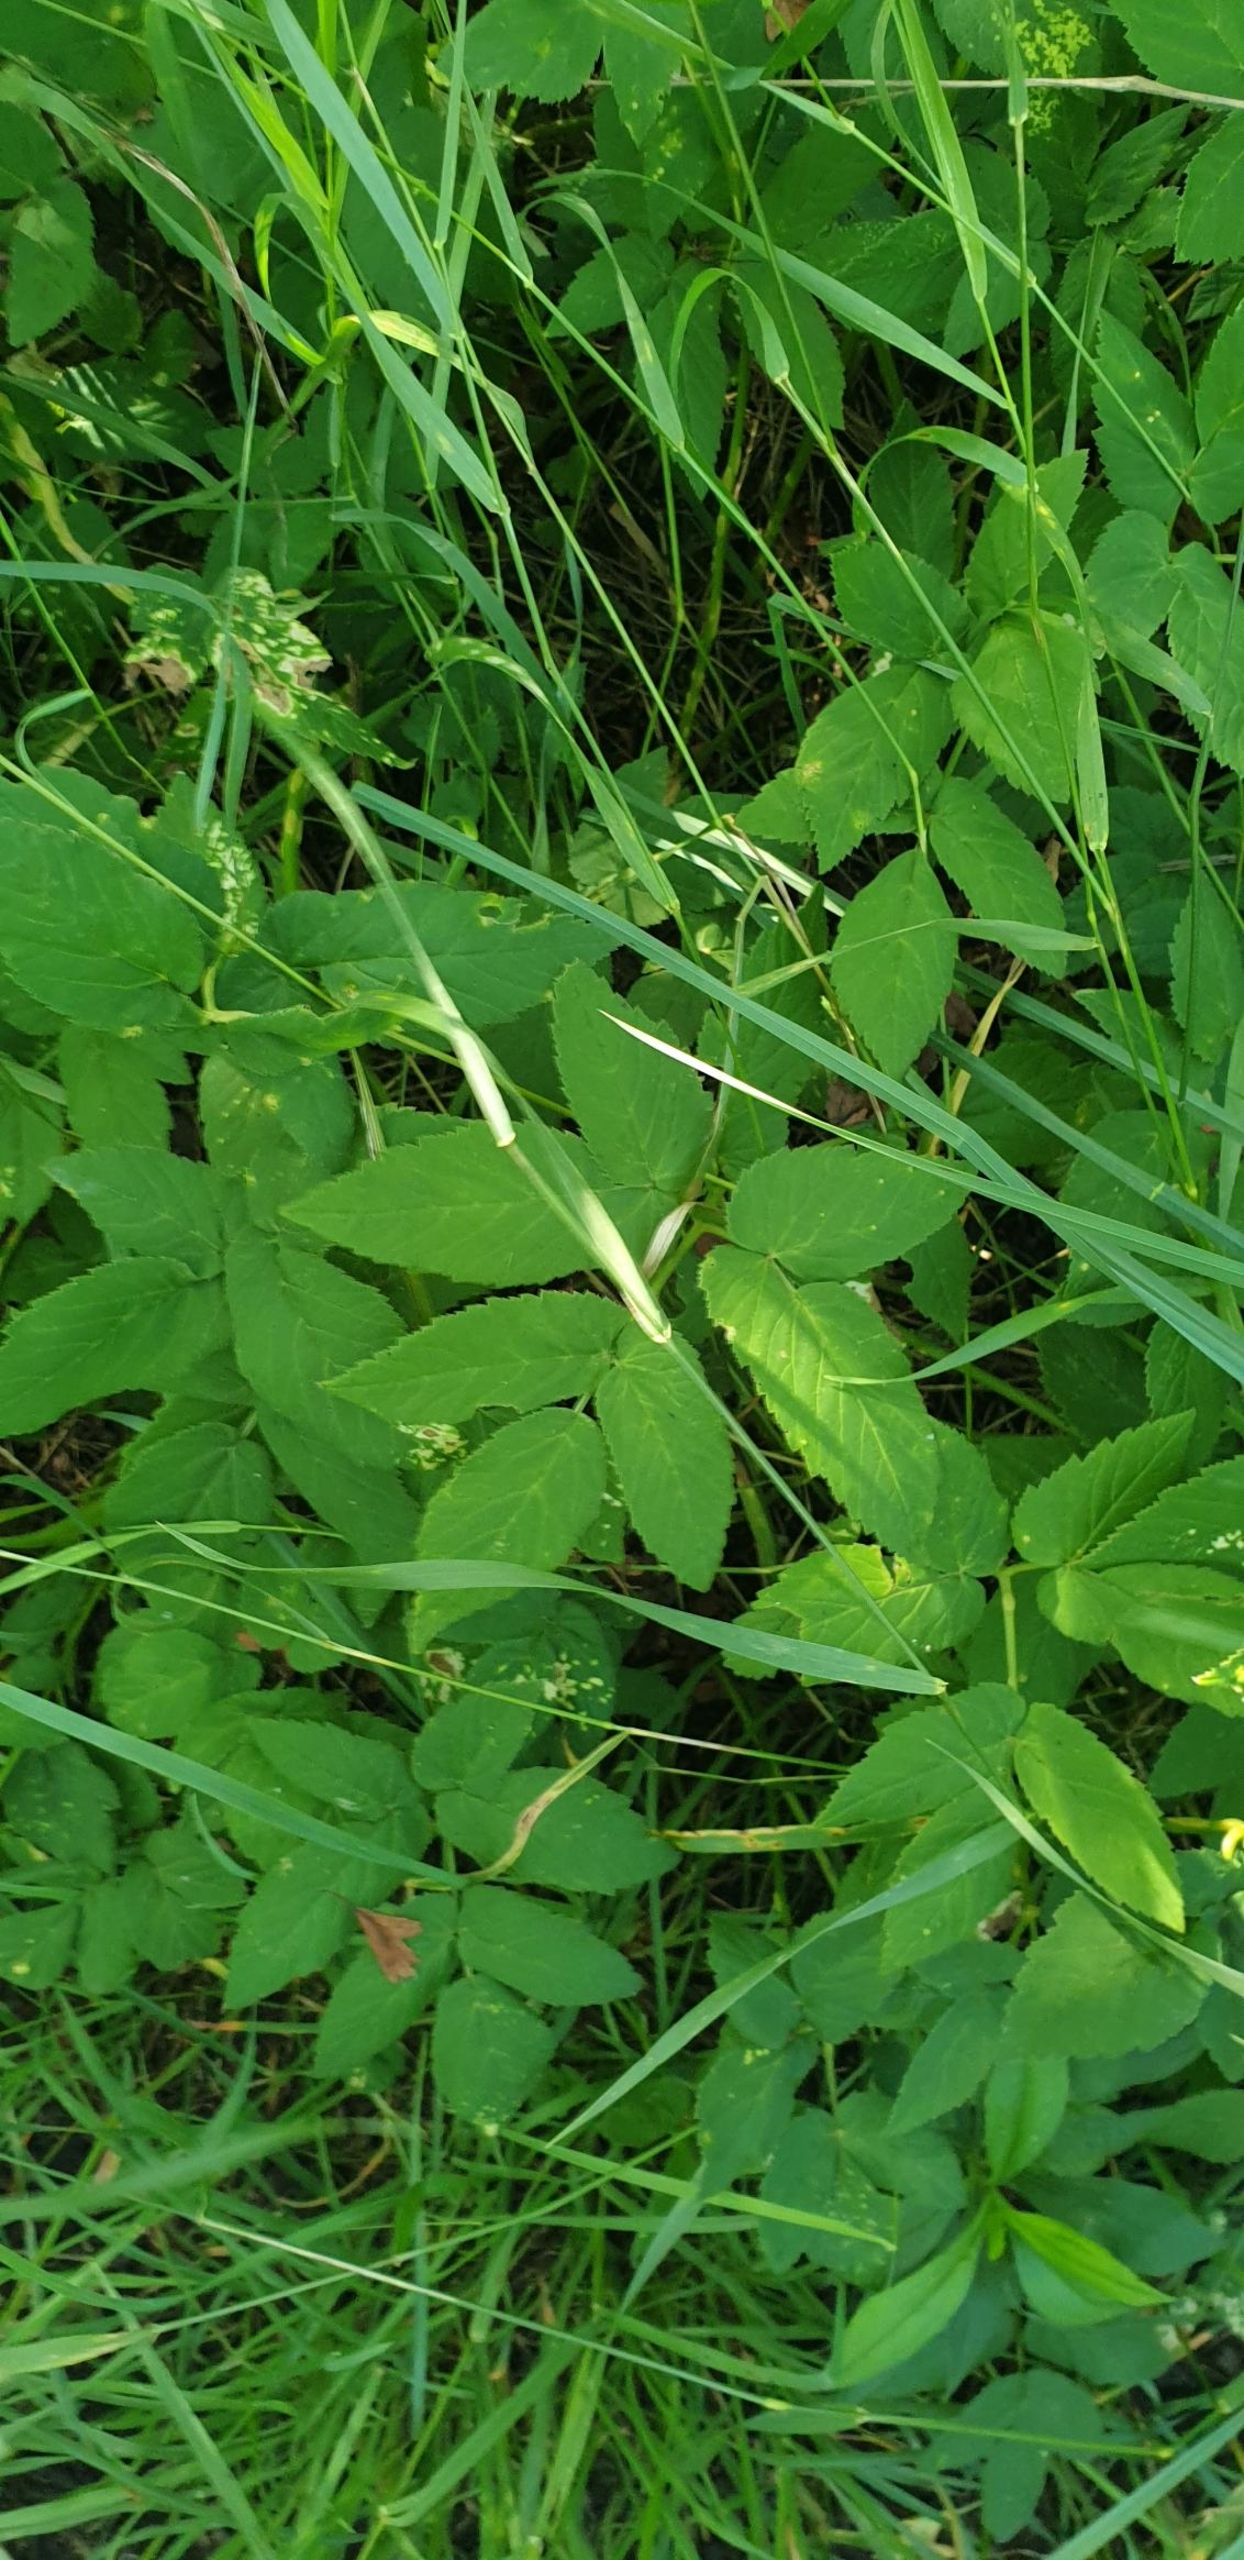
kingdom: Plantae
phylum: Tracheophyta
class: Magnoliopsida
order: Apiales
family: Apiaceae
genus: Aegopodium
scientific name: Aegopodium podagraria
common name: Skvalderkål
